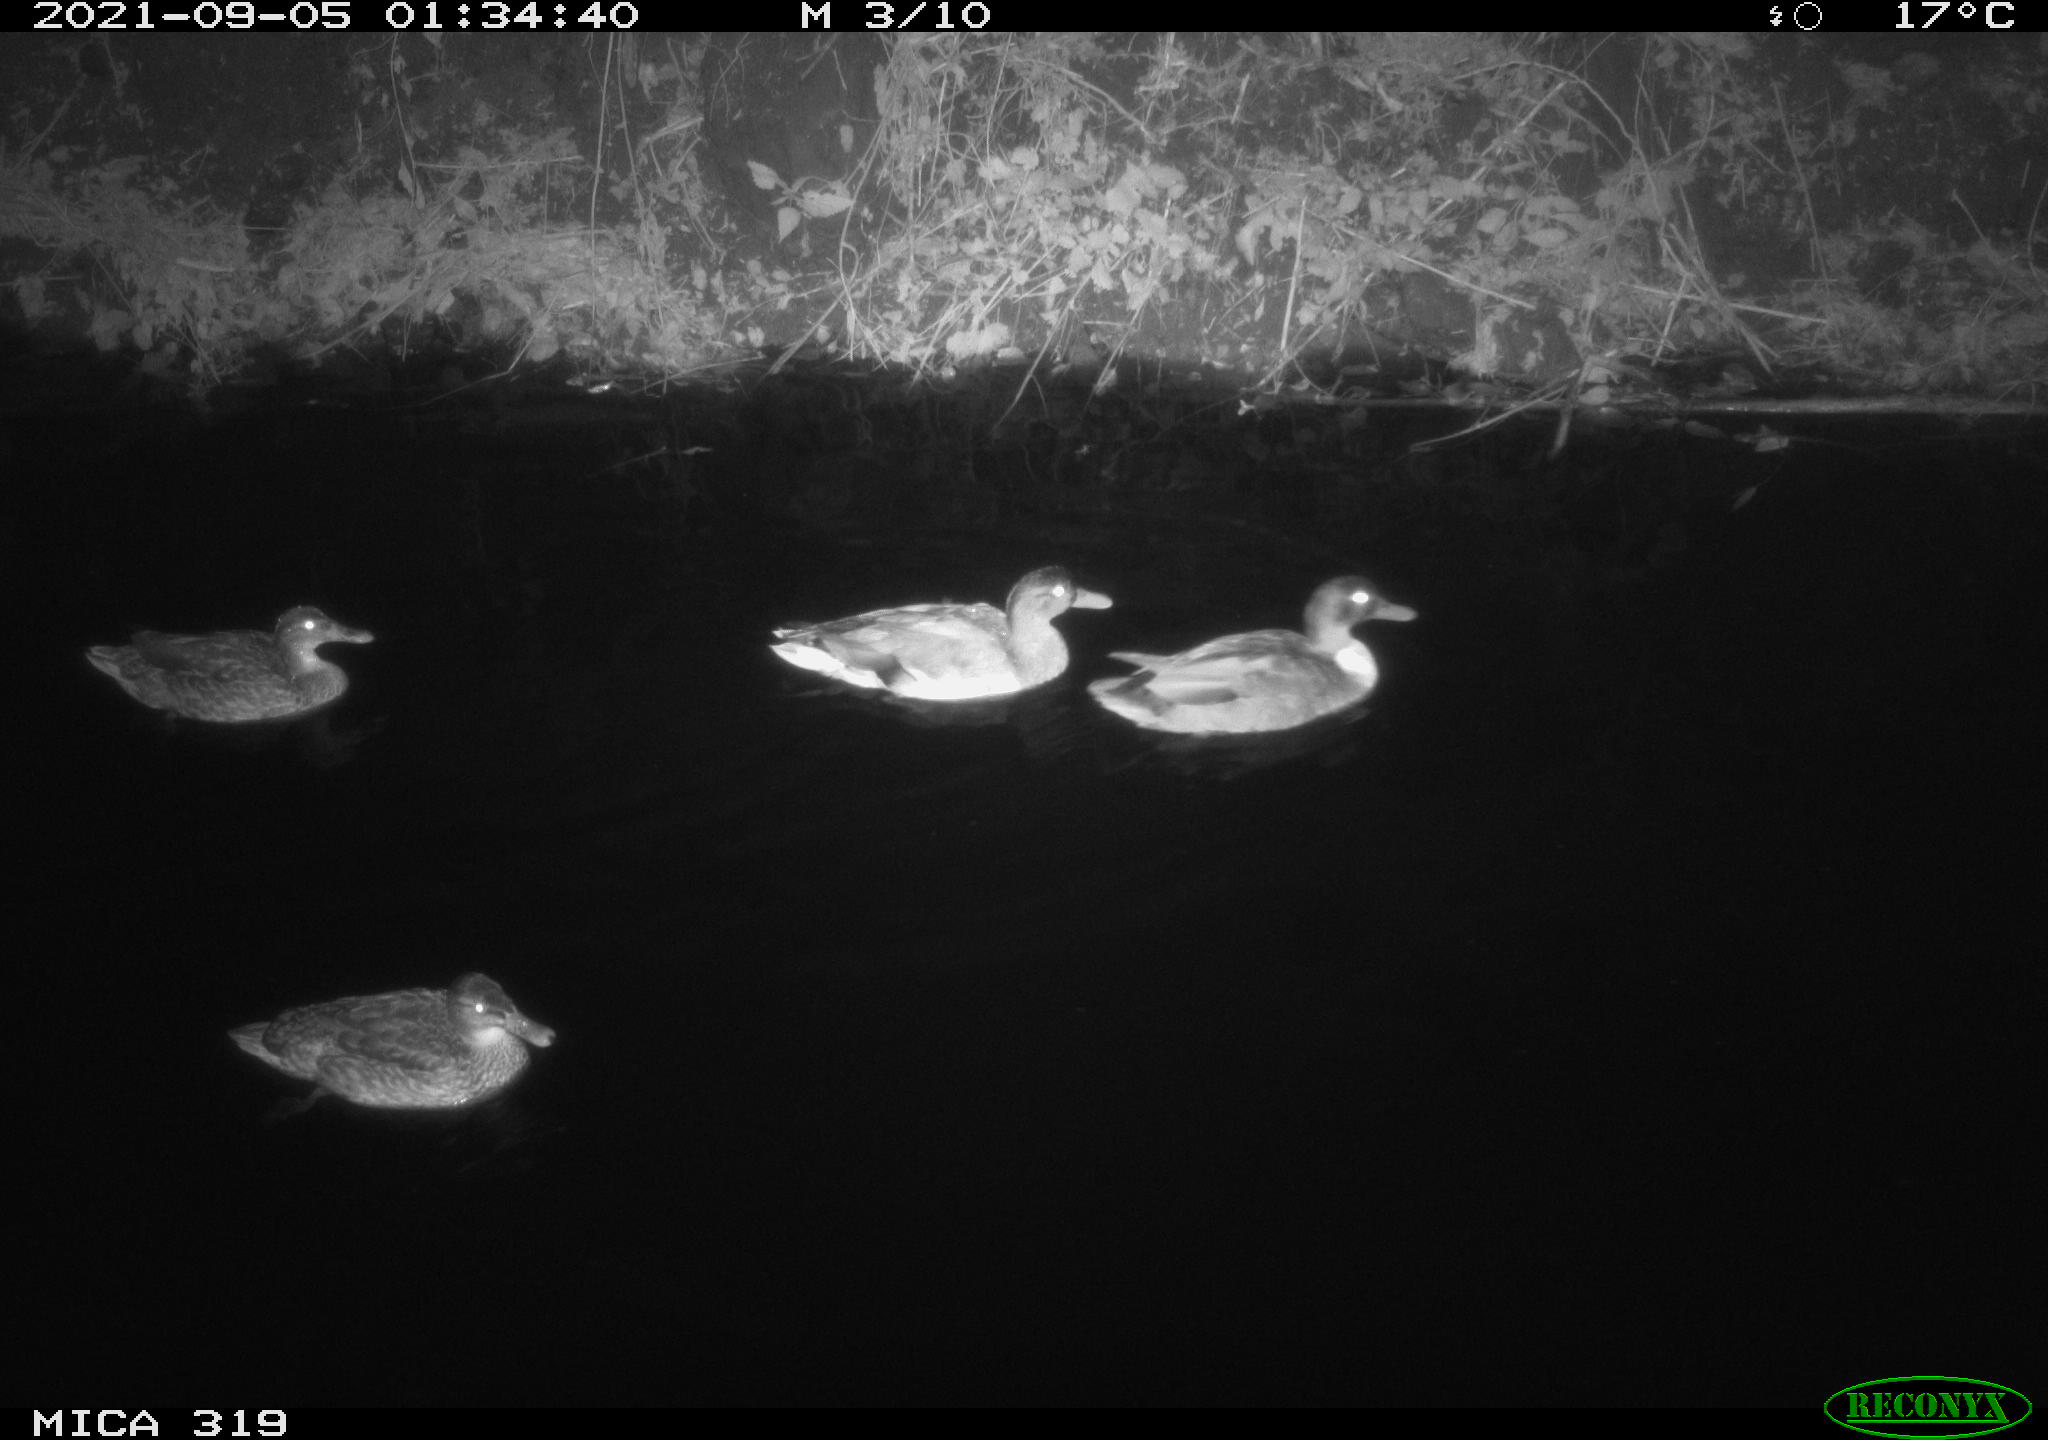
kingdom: Animalia
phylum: Chordata
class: Aves
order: Anseriformes
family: Anatidae
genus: Anas
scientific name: Anas platyrhynchos
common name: Mallard
